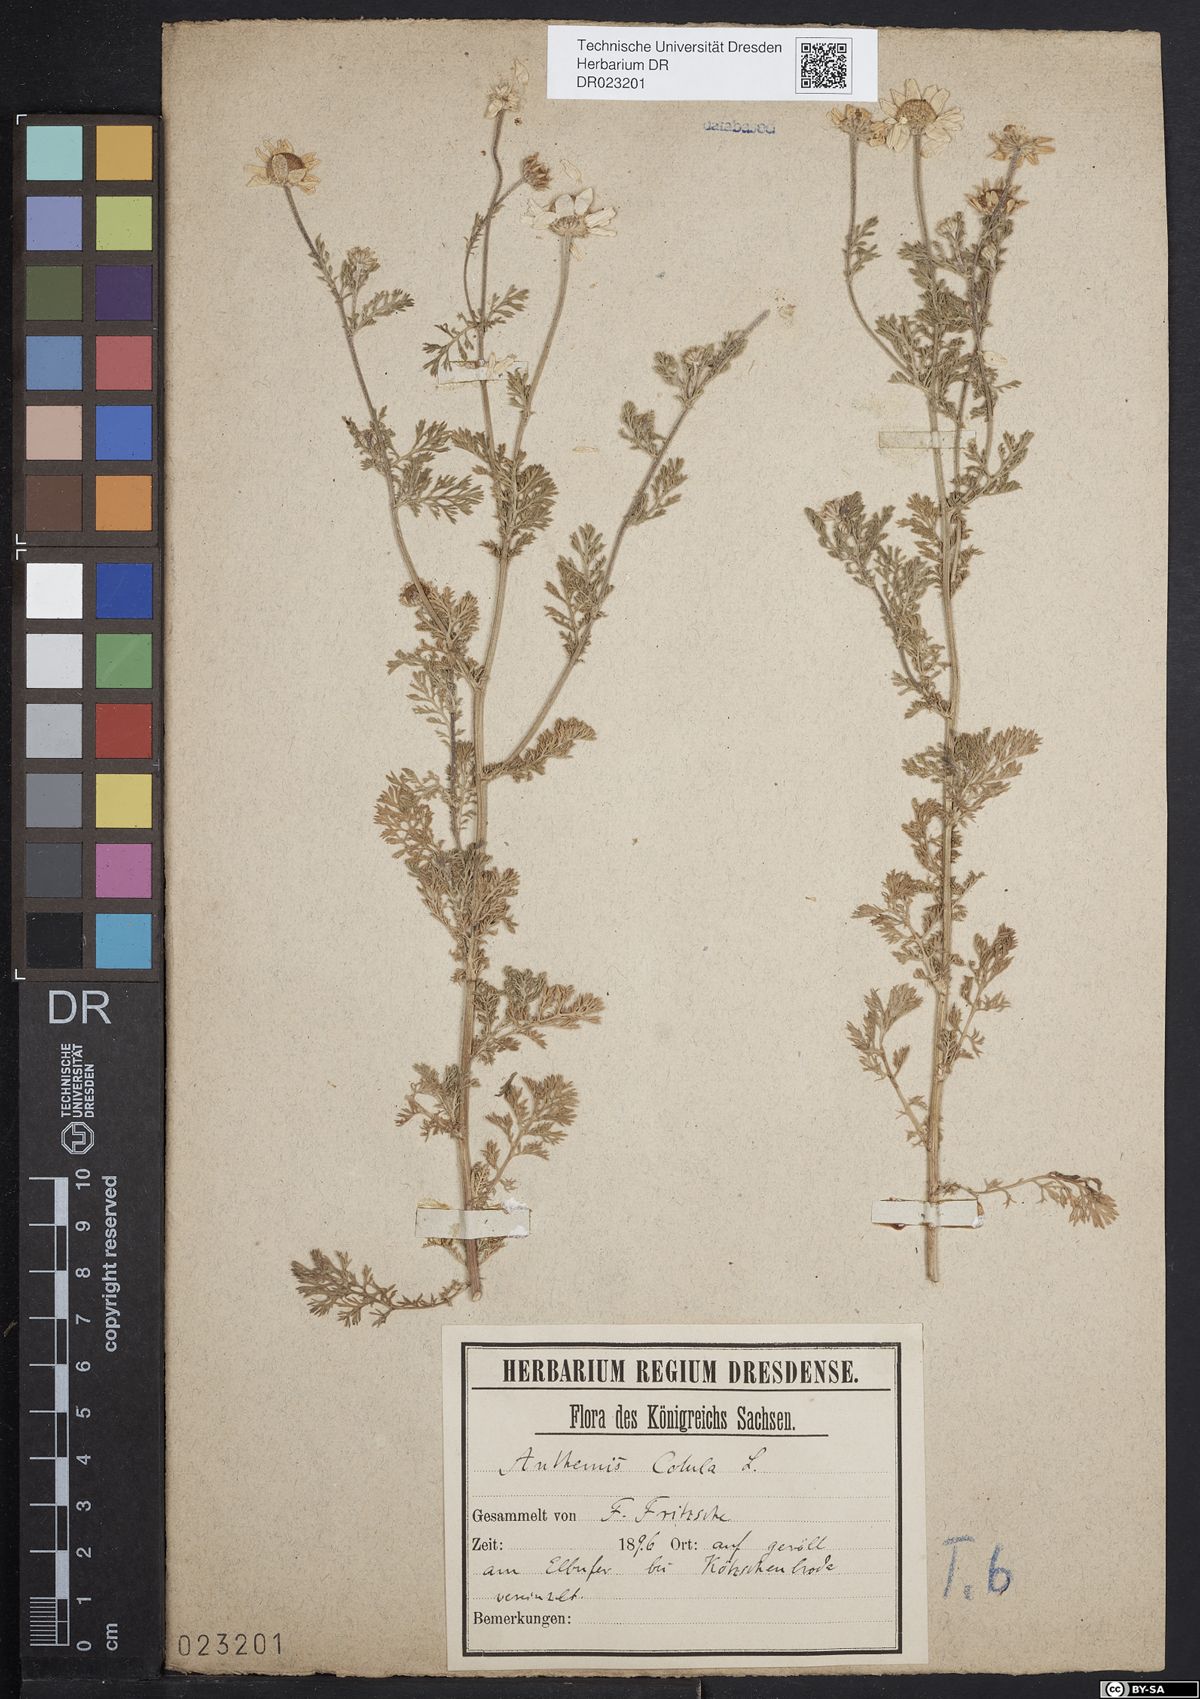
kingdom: Plantae
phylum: Tracheophyta
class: Magnoliopsida
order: Asterales
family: Asteraceae
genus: Anthemis
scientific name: Anthemis cotula
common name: Stinking chamomile
